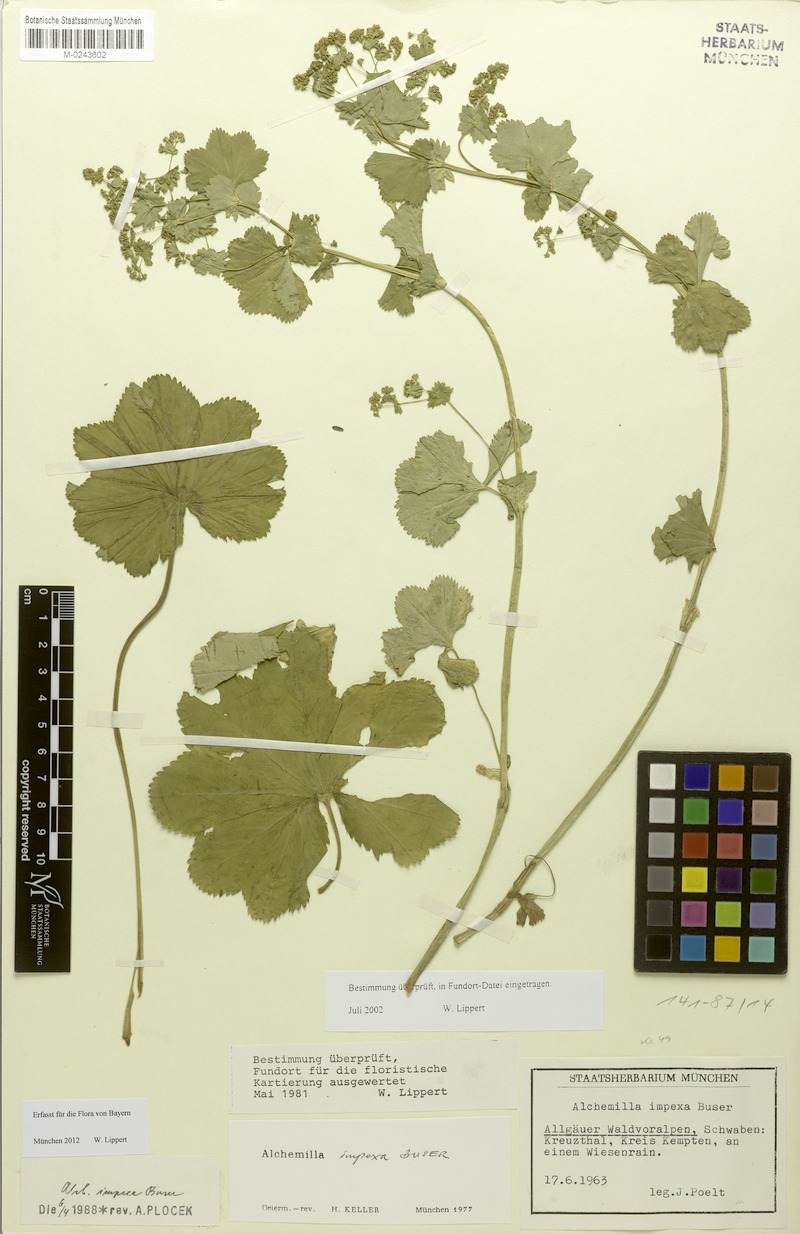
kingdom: Plantae
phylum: Tracheophyta
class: Magnoliopsida
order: Rosales
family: Rosaceae
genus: Alchemilla
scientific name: Alchemilla longituba
